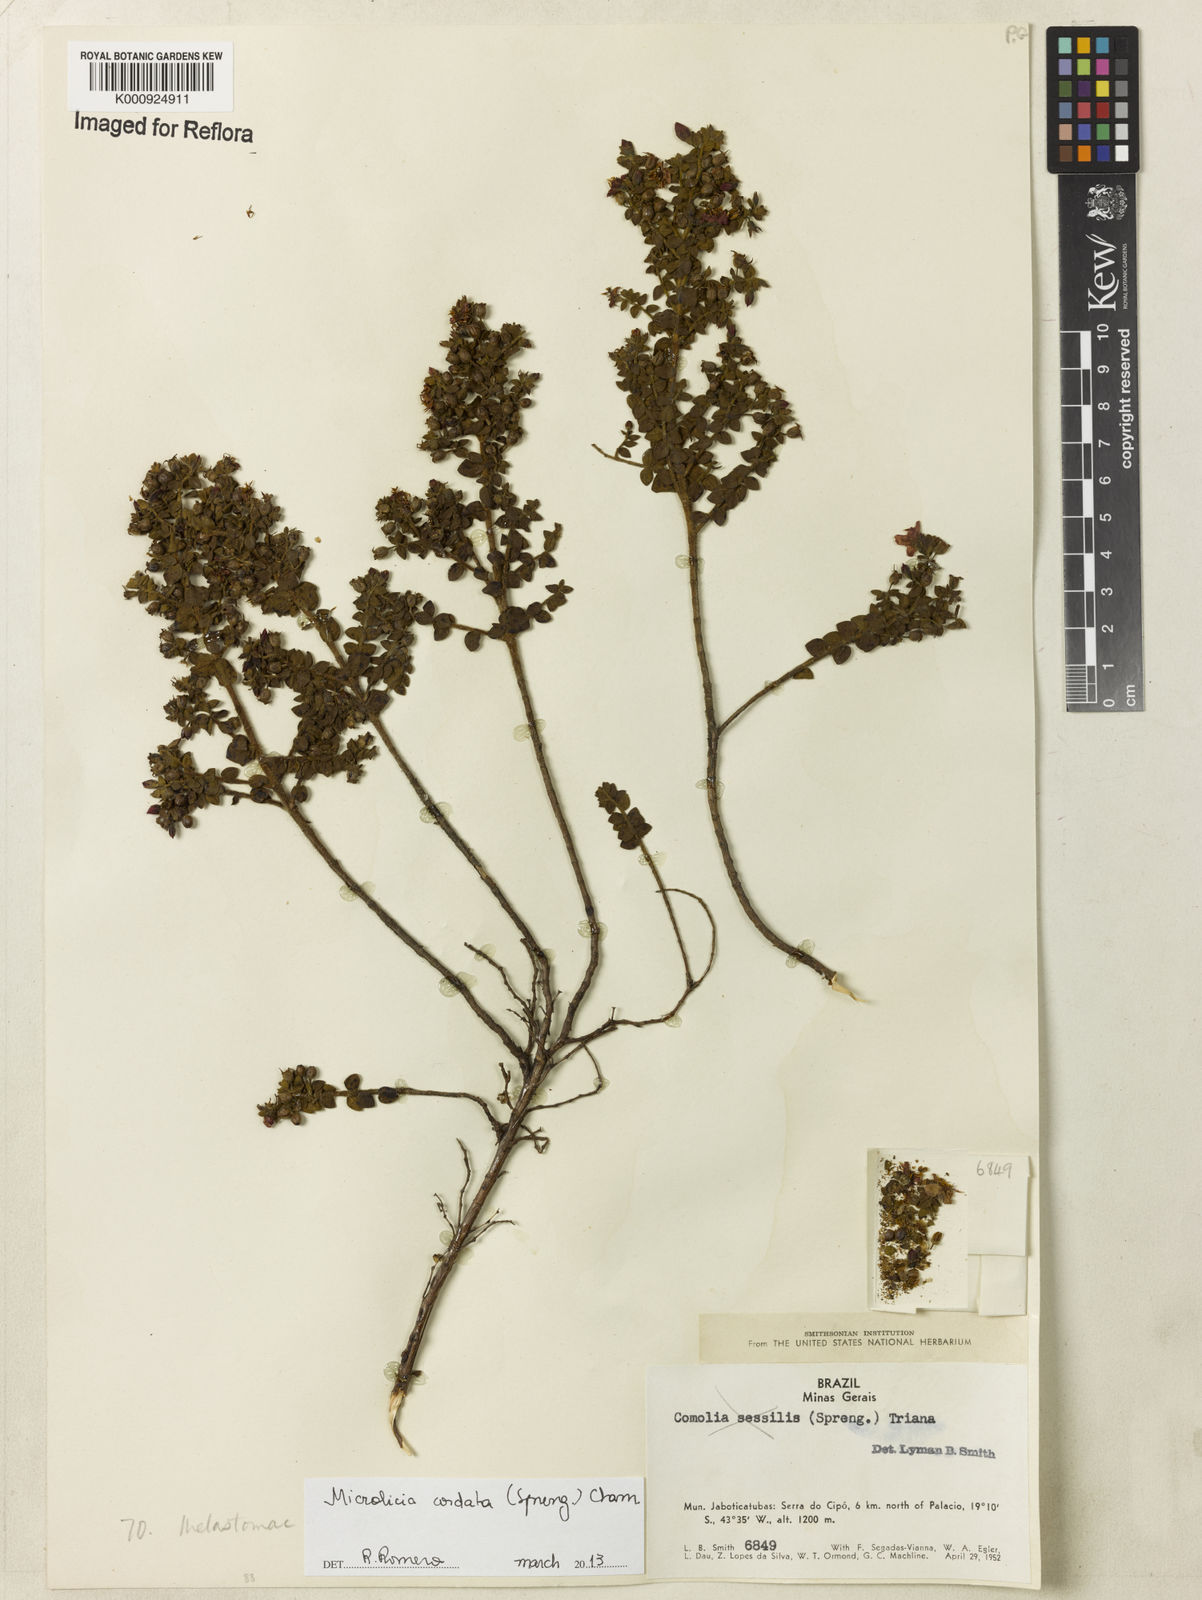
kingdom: Plantae
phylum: Tracheophyta
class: Magnoliopsida
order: Myrtales
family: Melastomataceae
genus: Microlicia
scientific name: Microlicia cordata
